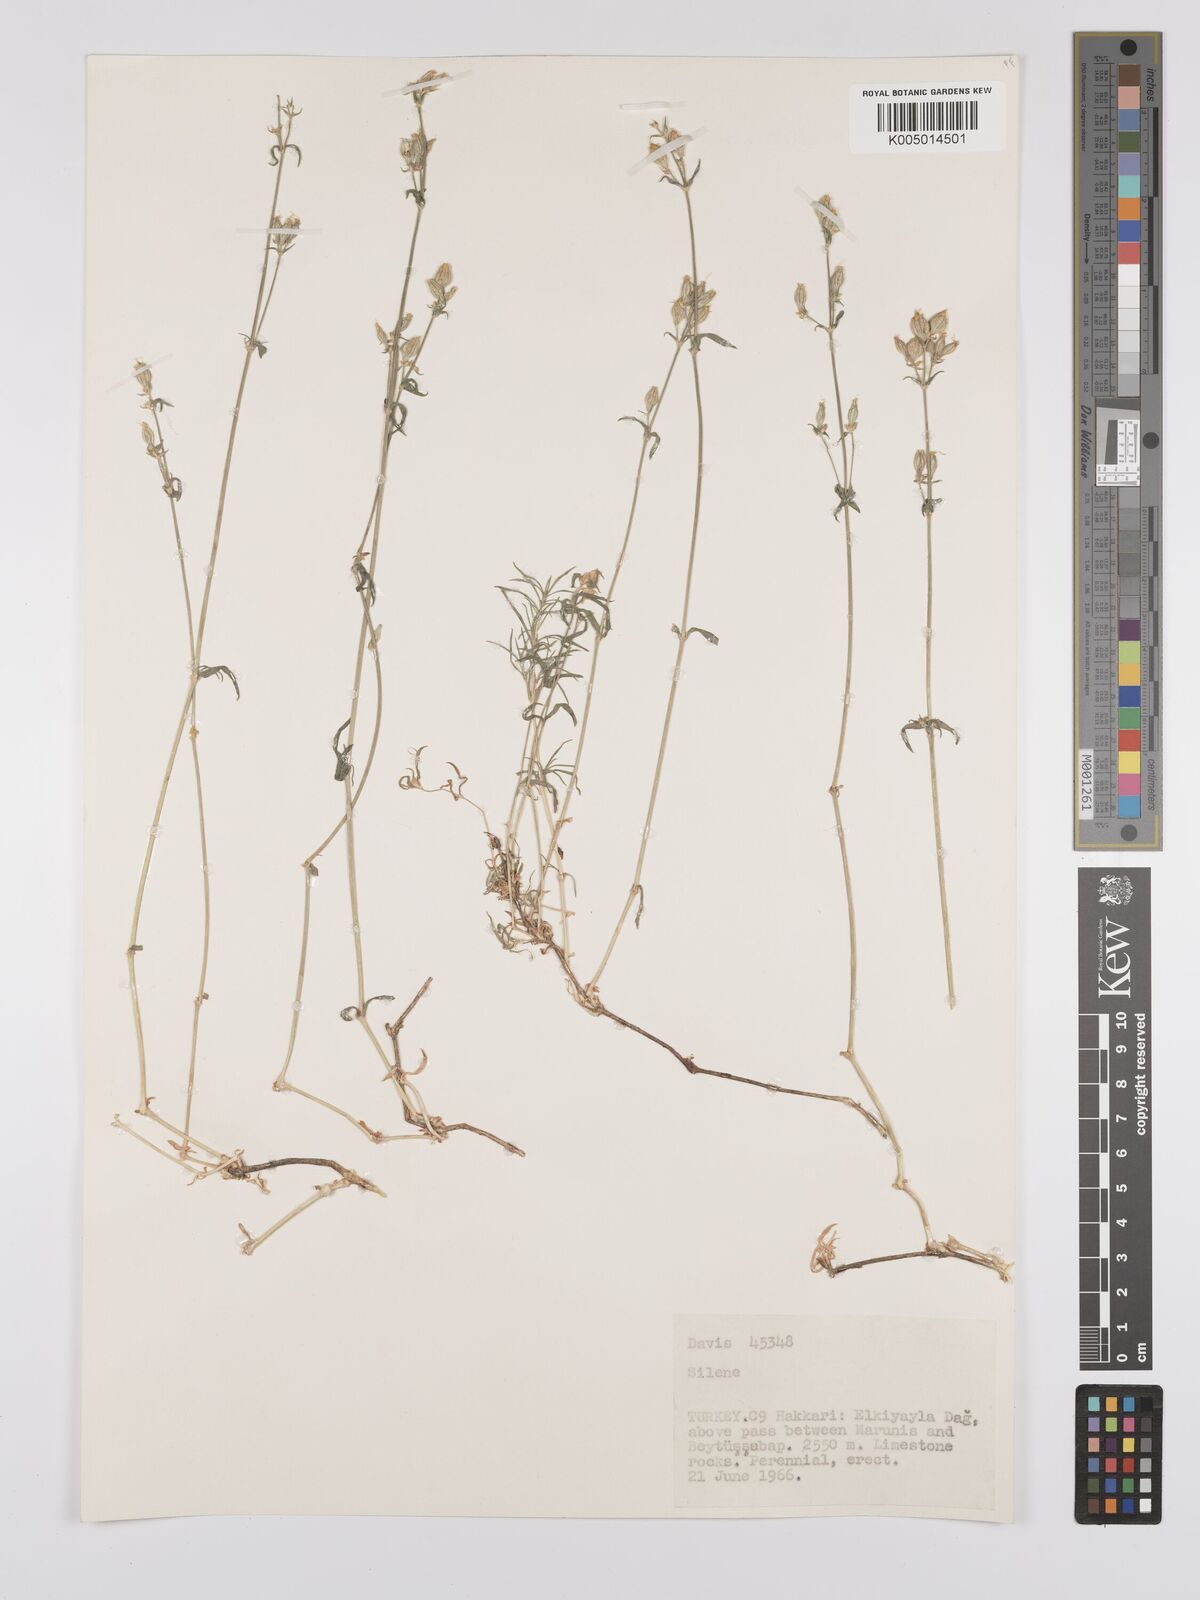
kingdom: Plantae
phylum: Tracheophyta
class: Magnoliopsida
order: Caryophyllales
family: Caryophyllaceae
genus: Silene
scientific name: Silene
